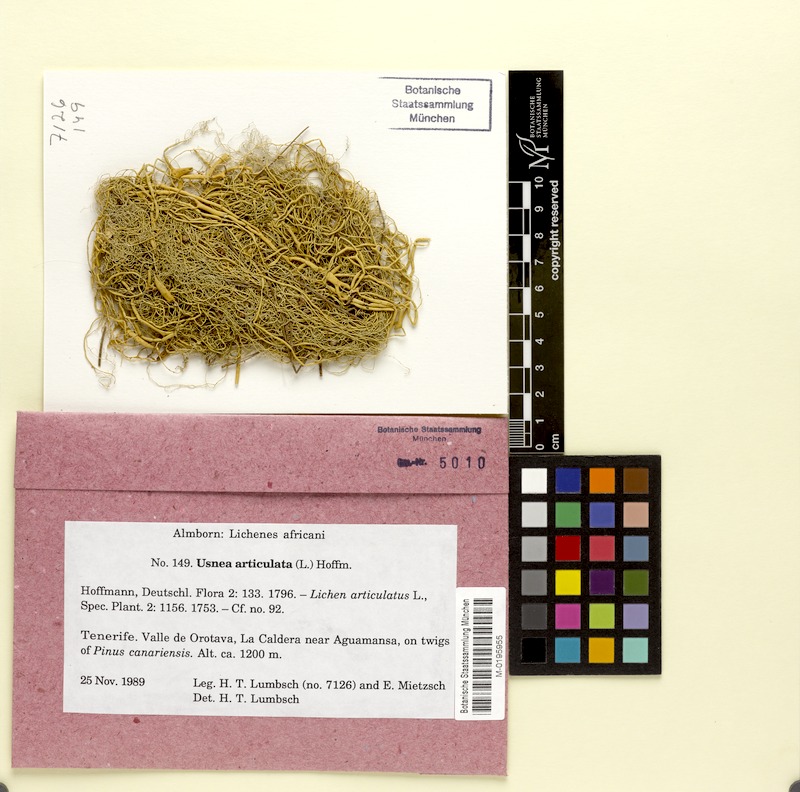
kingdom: Fungi
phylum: Ascomycota
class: Lecanoromycetes
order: Lecanorales
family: Parmeliaceae
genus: Usnea
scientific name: Usnea articulata
